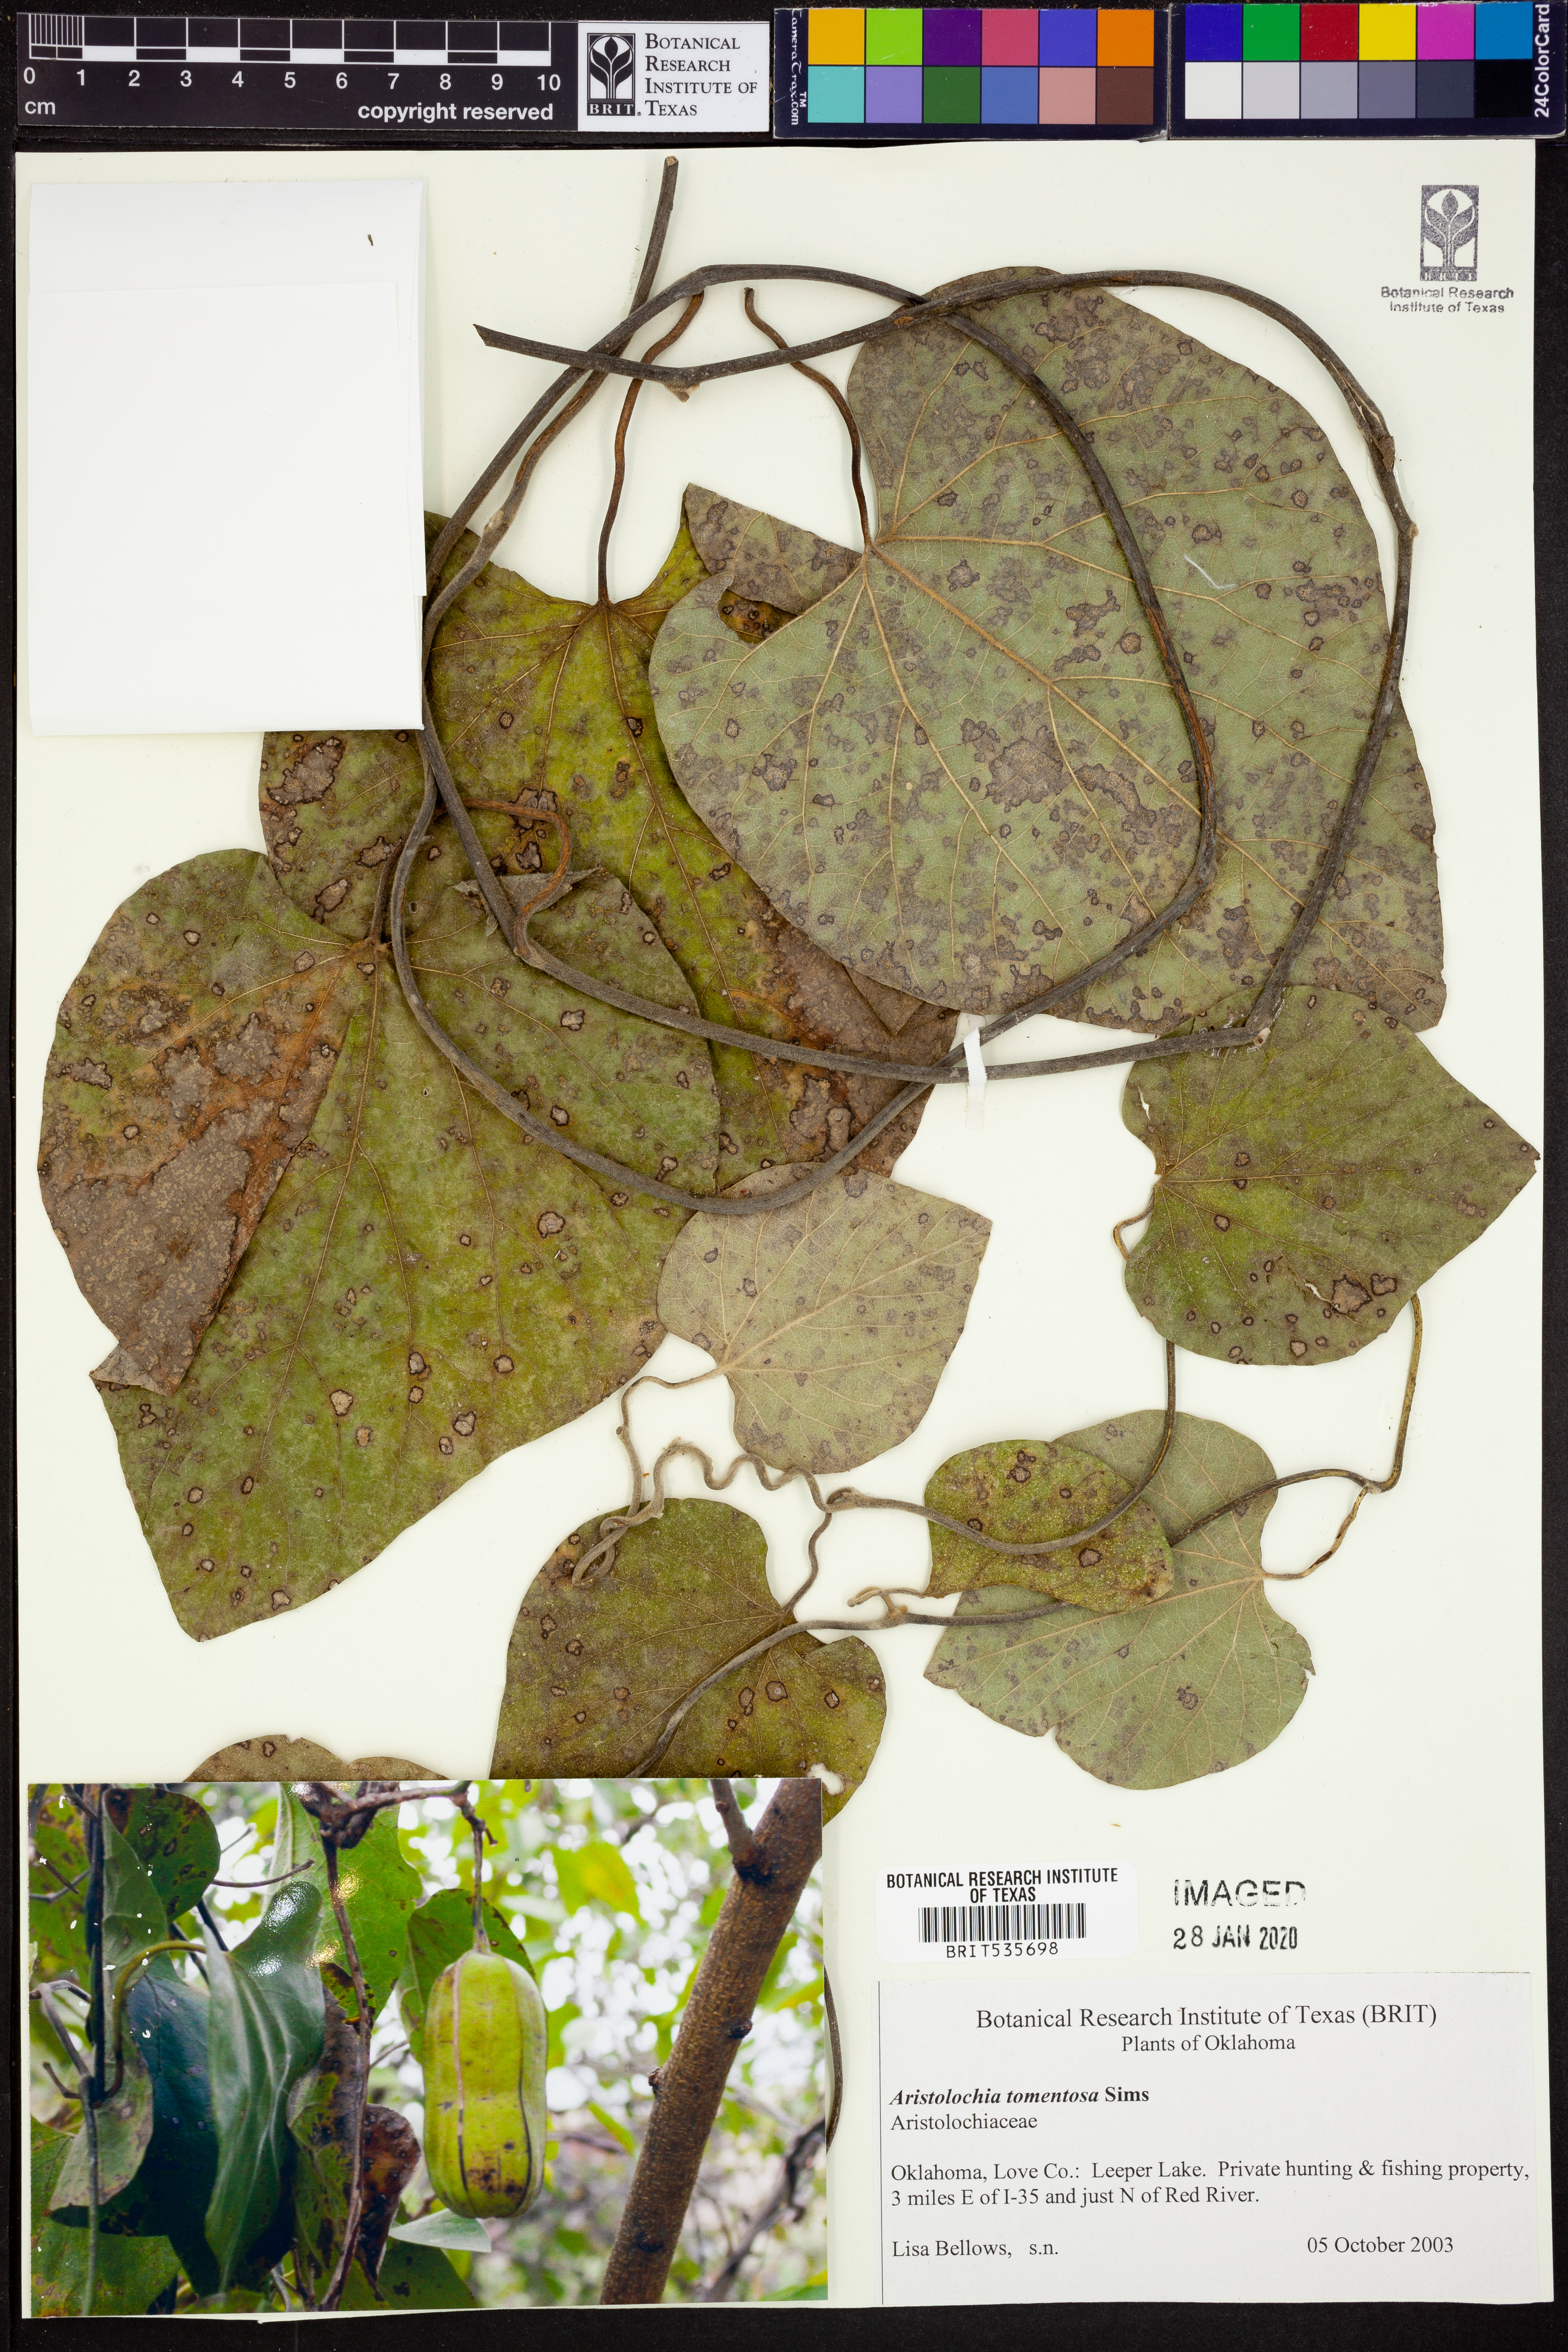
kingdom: Plantae
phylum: Tracheophyta
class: Magnoliopsida
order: Piperales
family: Aristolochiaceae
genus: Isotrema
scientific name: Isotrema tomentosum
